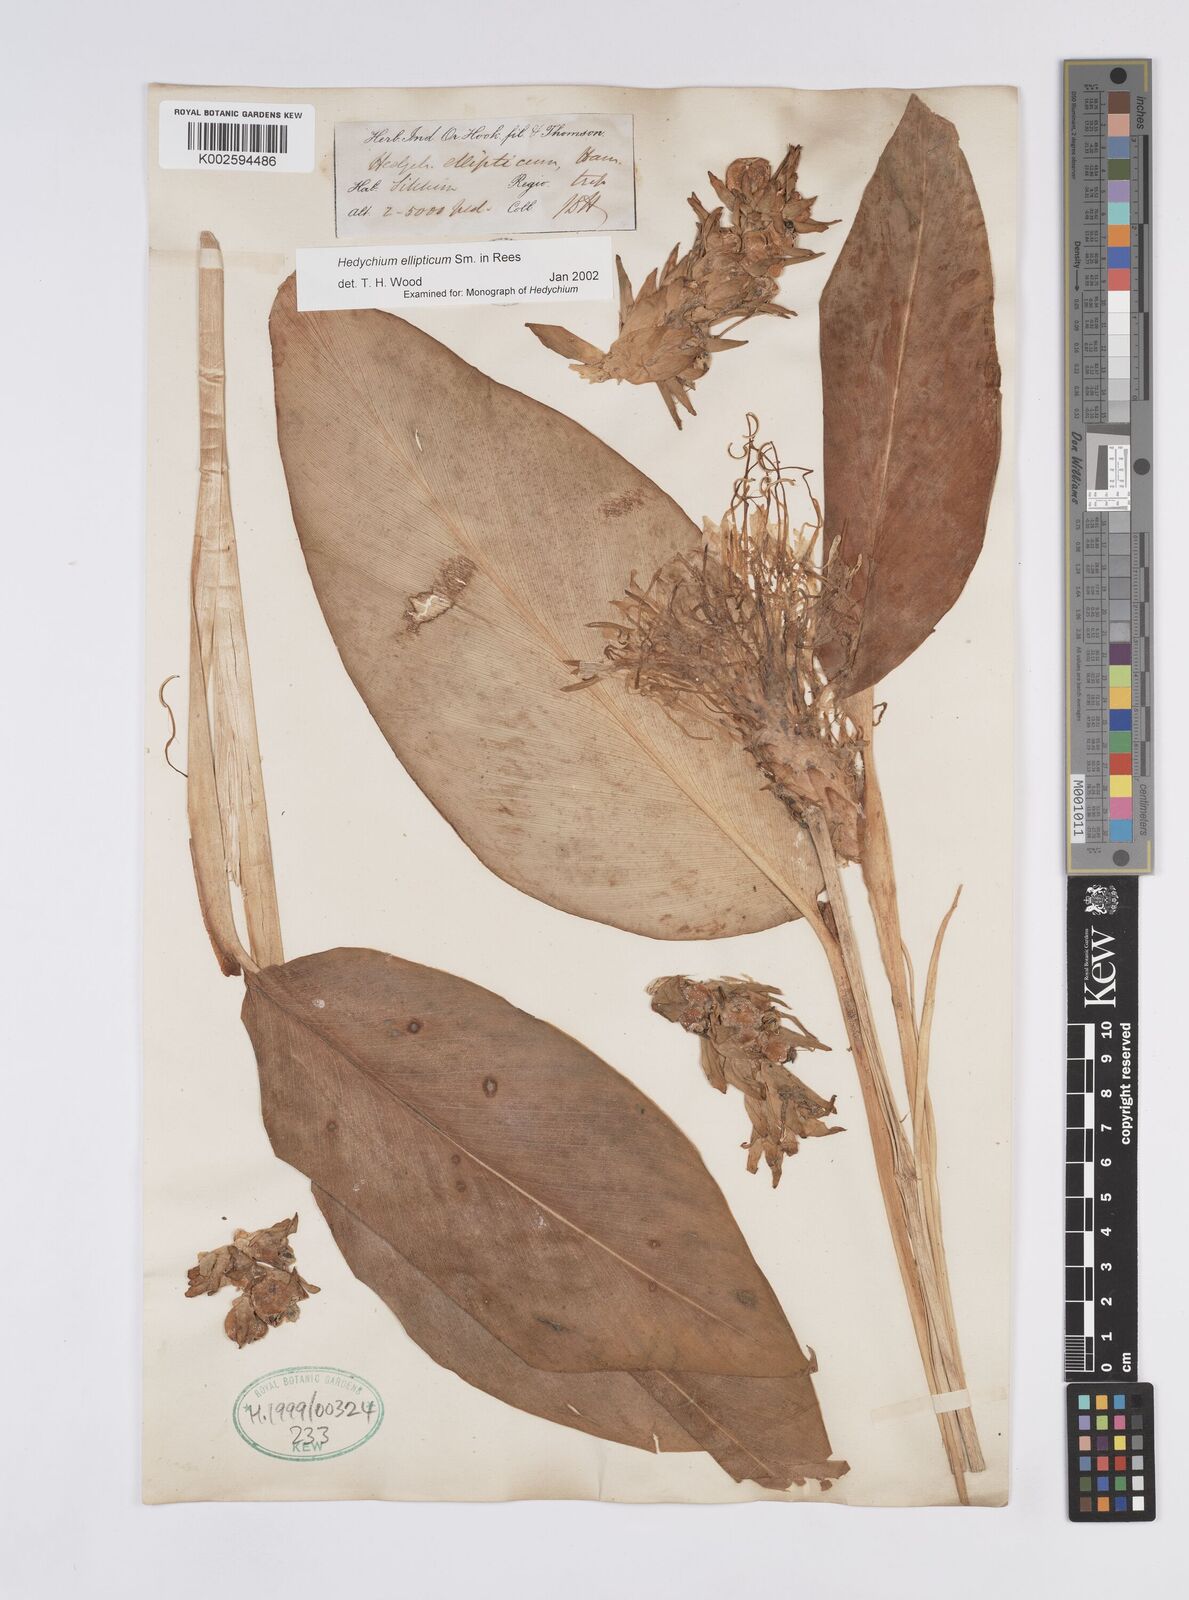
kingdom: Plantae
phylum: Tracheophyta
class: Liliopsida
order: Zingiberales
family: Zingiberaceae
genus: Hedychium
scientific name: Hedychium ellipticum
